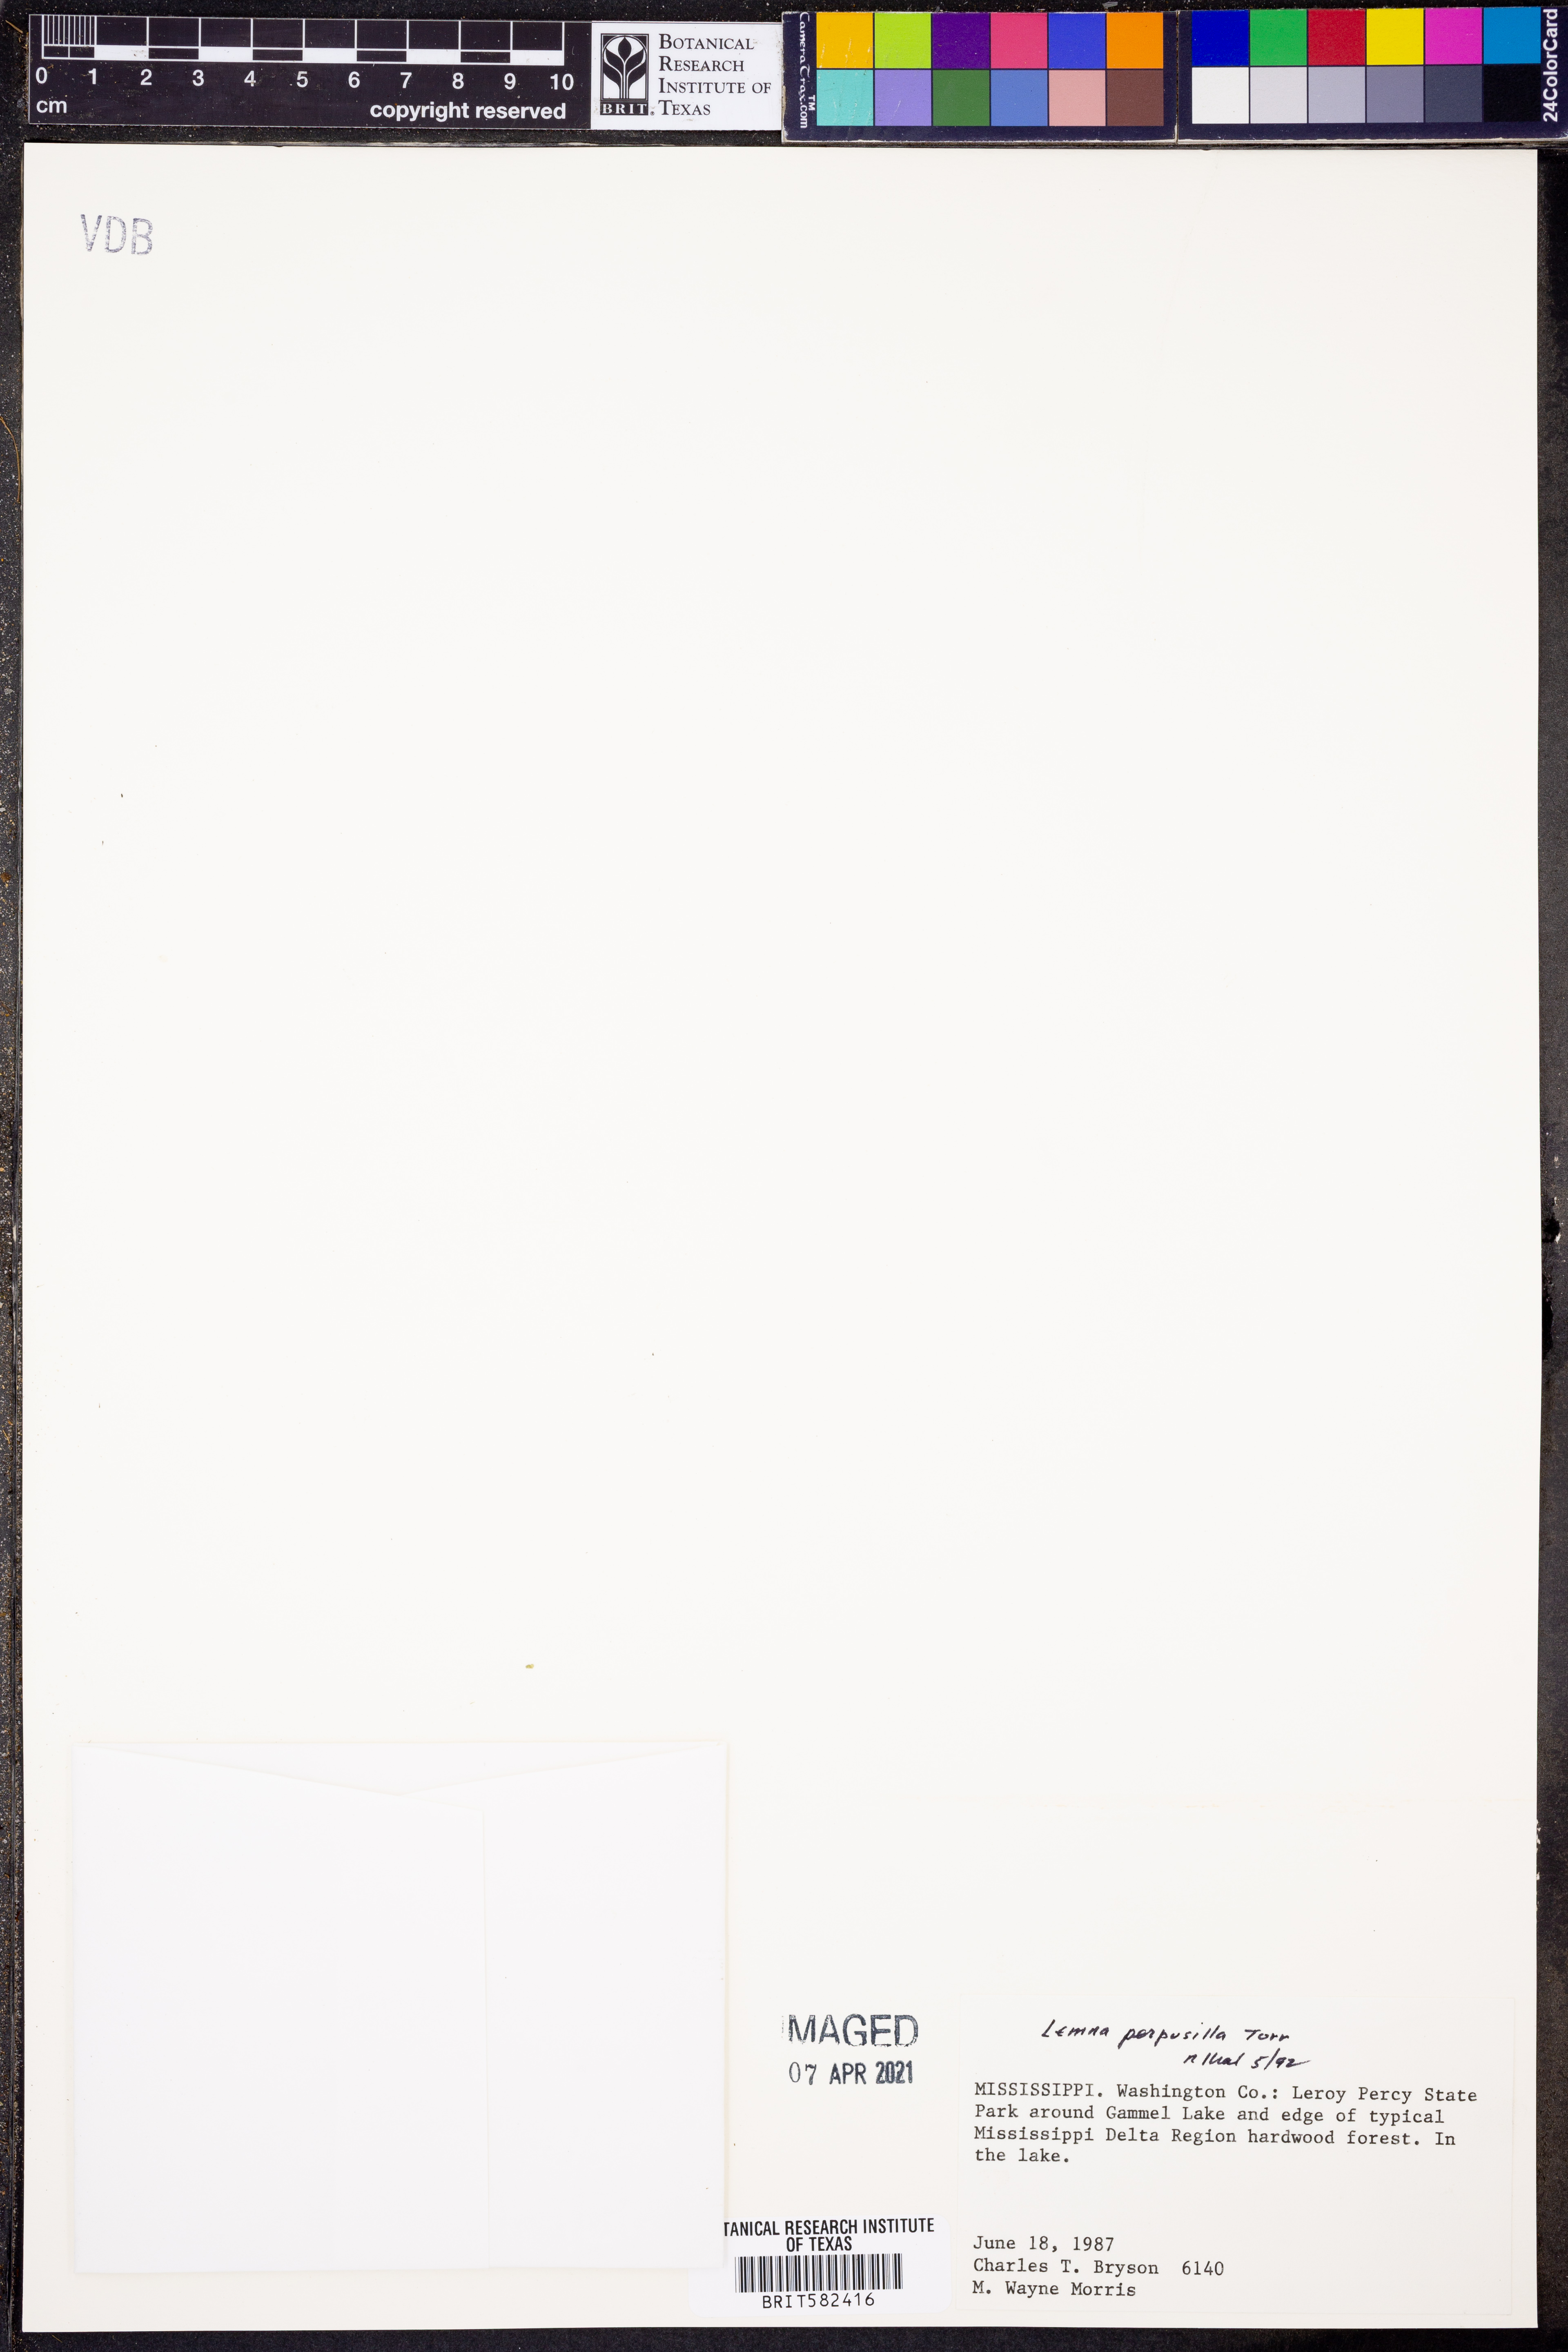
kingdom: Plantae
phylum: Tracheophyta
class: Liliopsida
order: Alismatales
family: Araceae
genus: Lemna
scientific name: Lemna perpusilla
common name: Duckweed
